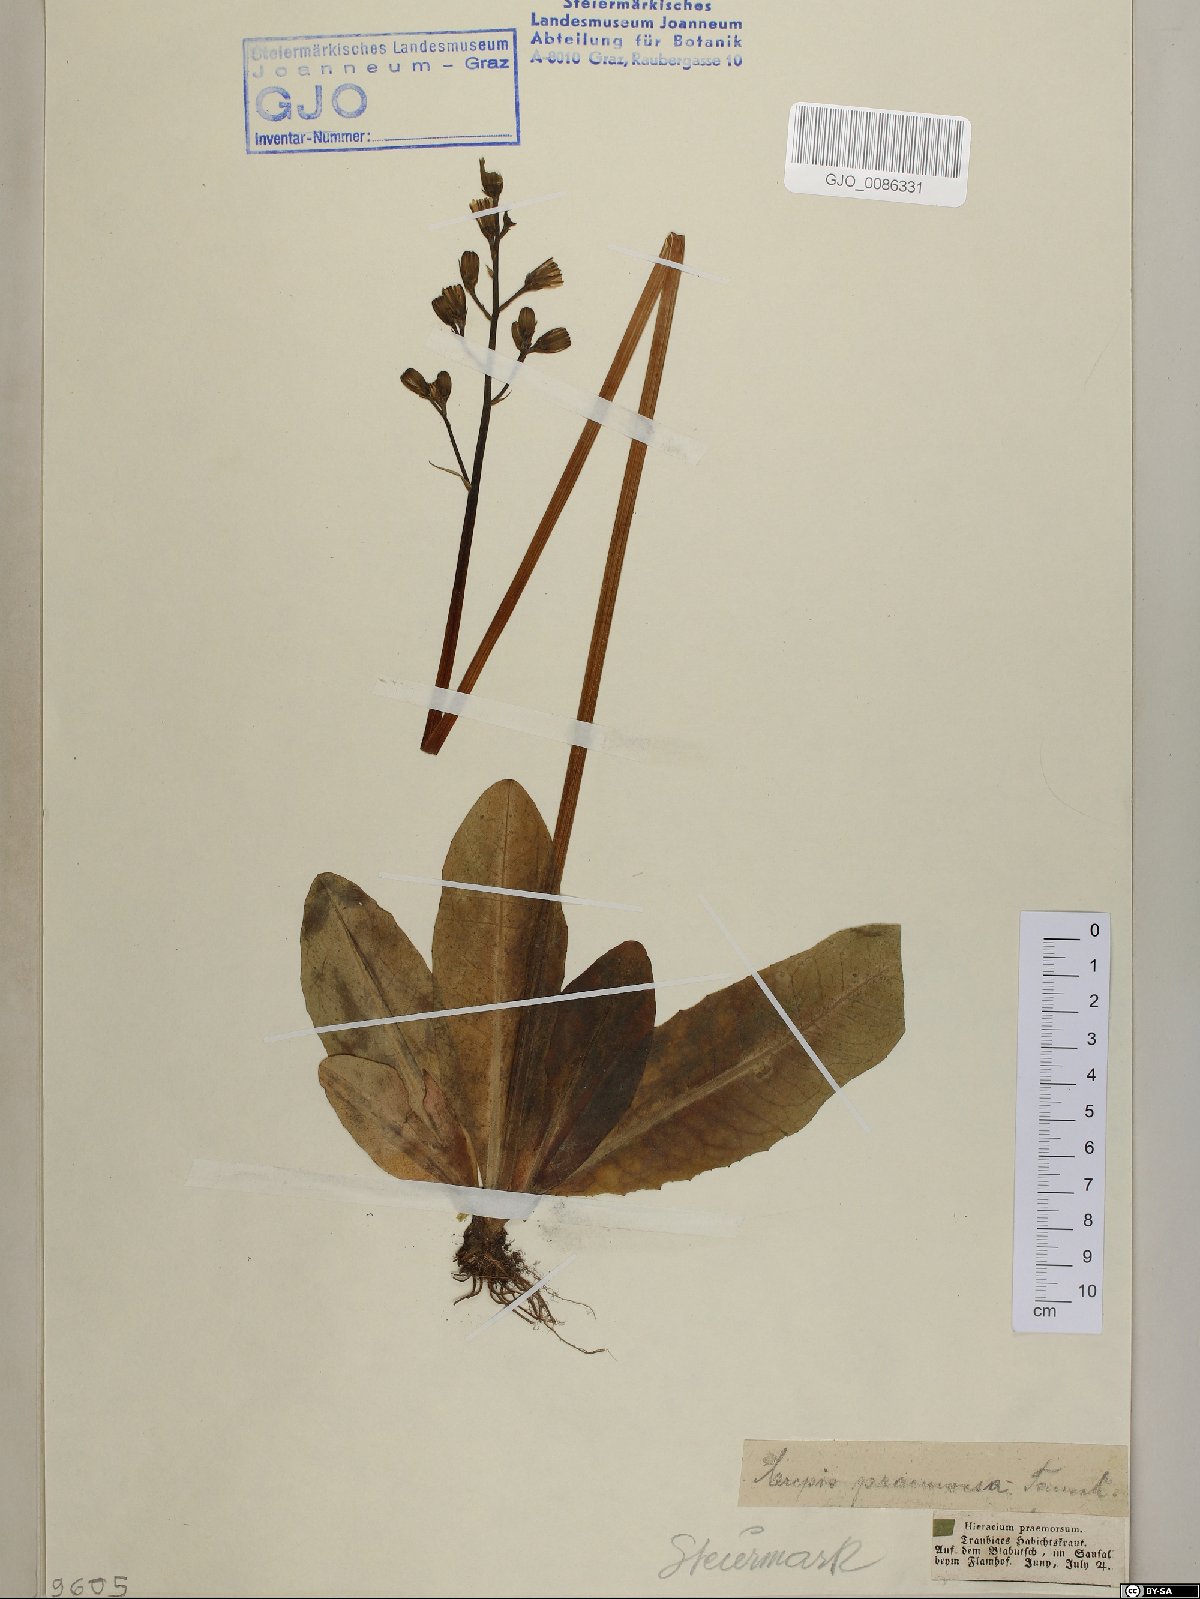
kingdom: Plantae
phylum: Tracheophyta
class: Magnoliopsida
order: Asterales
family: Asteraceae
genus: Crepis
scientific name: Crepis praemorsa
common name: Leafless hawk's-beard
